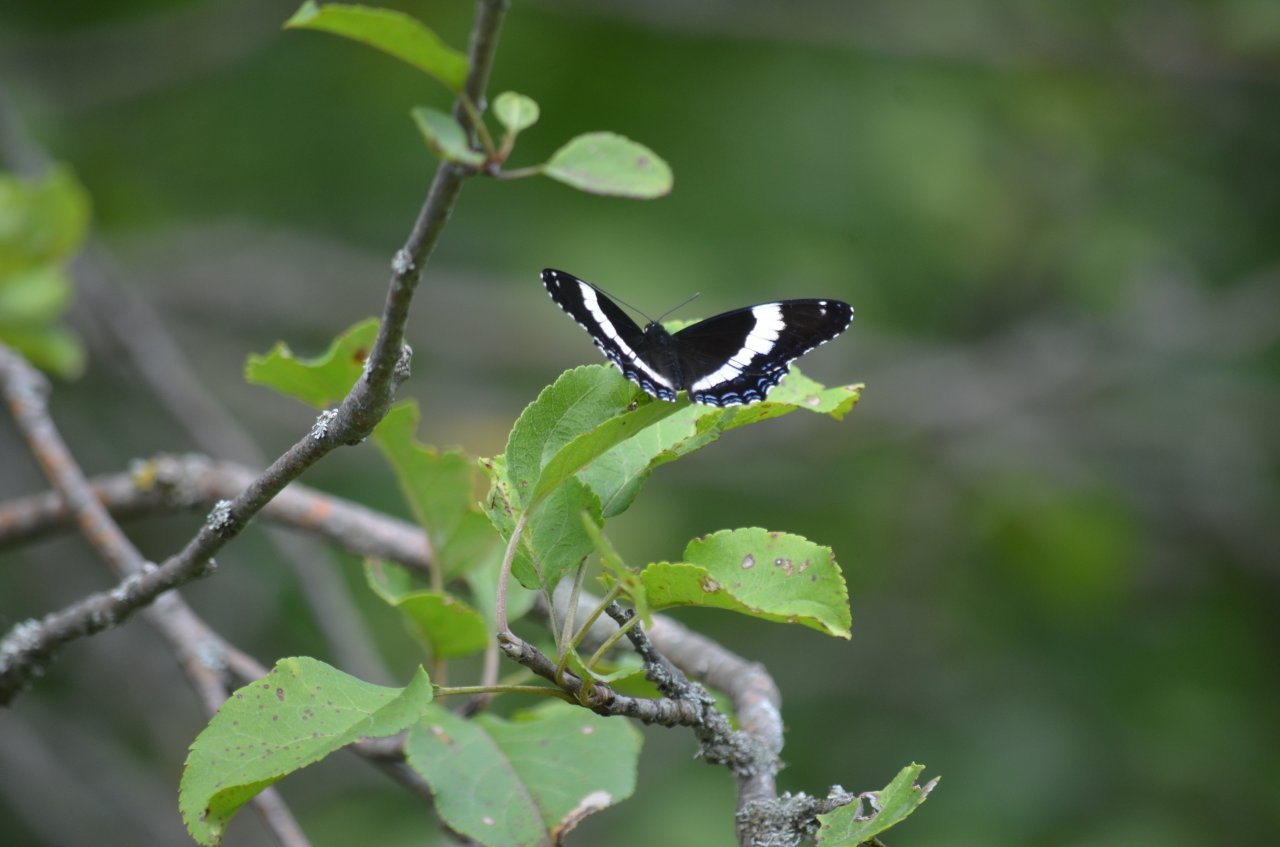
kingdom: Animalia
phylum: Arthropoda
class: Insecta
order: Lepidoptera
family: Nymphalidae
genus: Limenitis
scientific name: Limenitis arthemis
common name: Red-spotted Admiral
